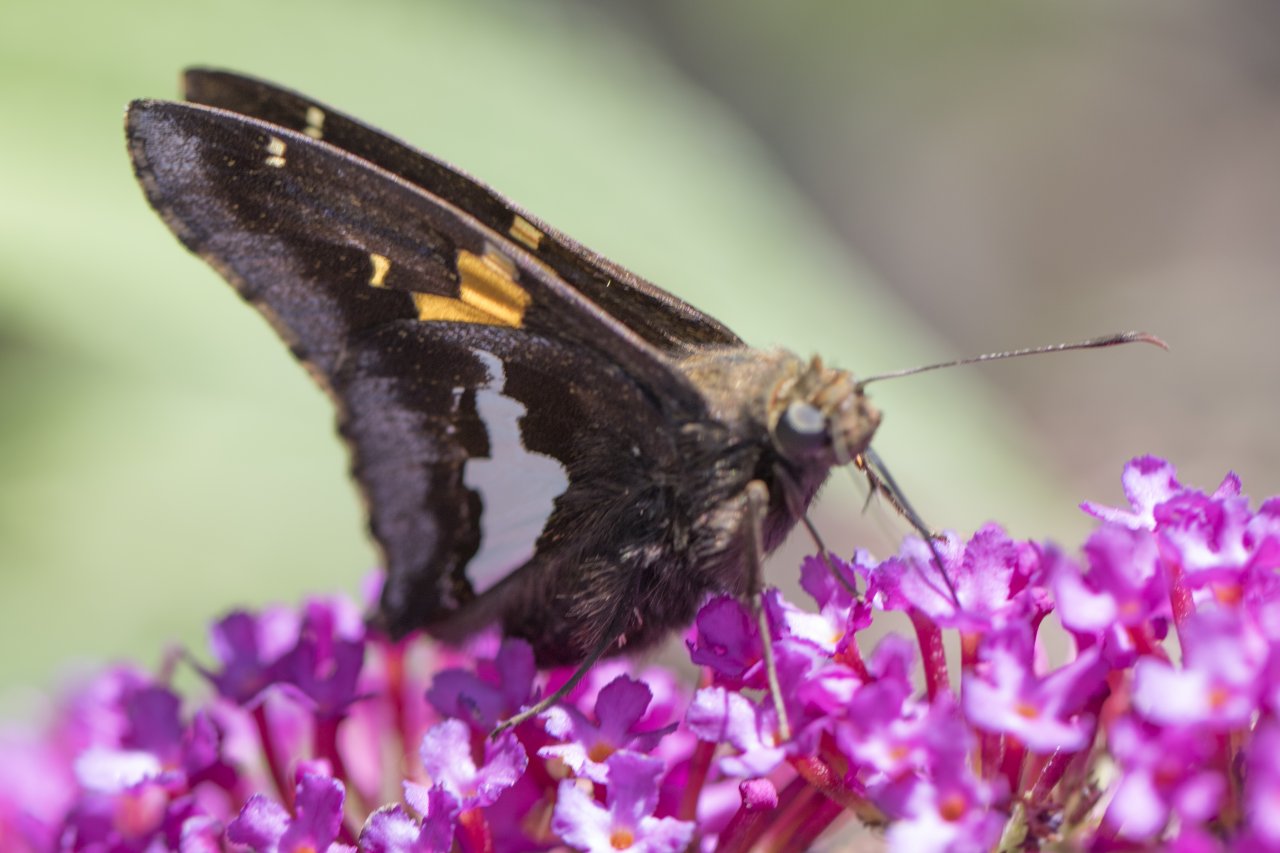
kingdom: Animalia
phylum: Arthropoda
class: Insecta
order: Lepidoptera
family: Hesperiidae
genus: Epargyreus
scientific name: Epargyreus clarus
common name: Silver-spotted Skipper
